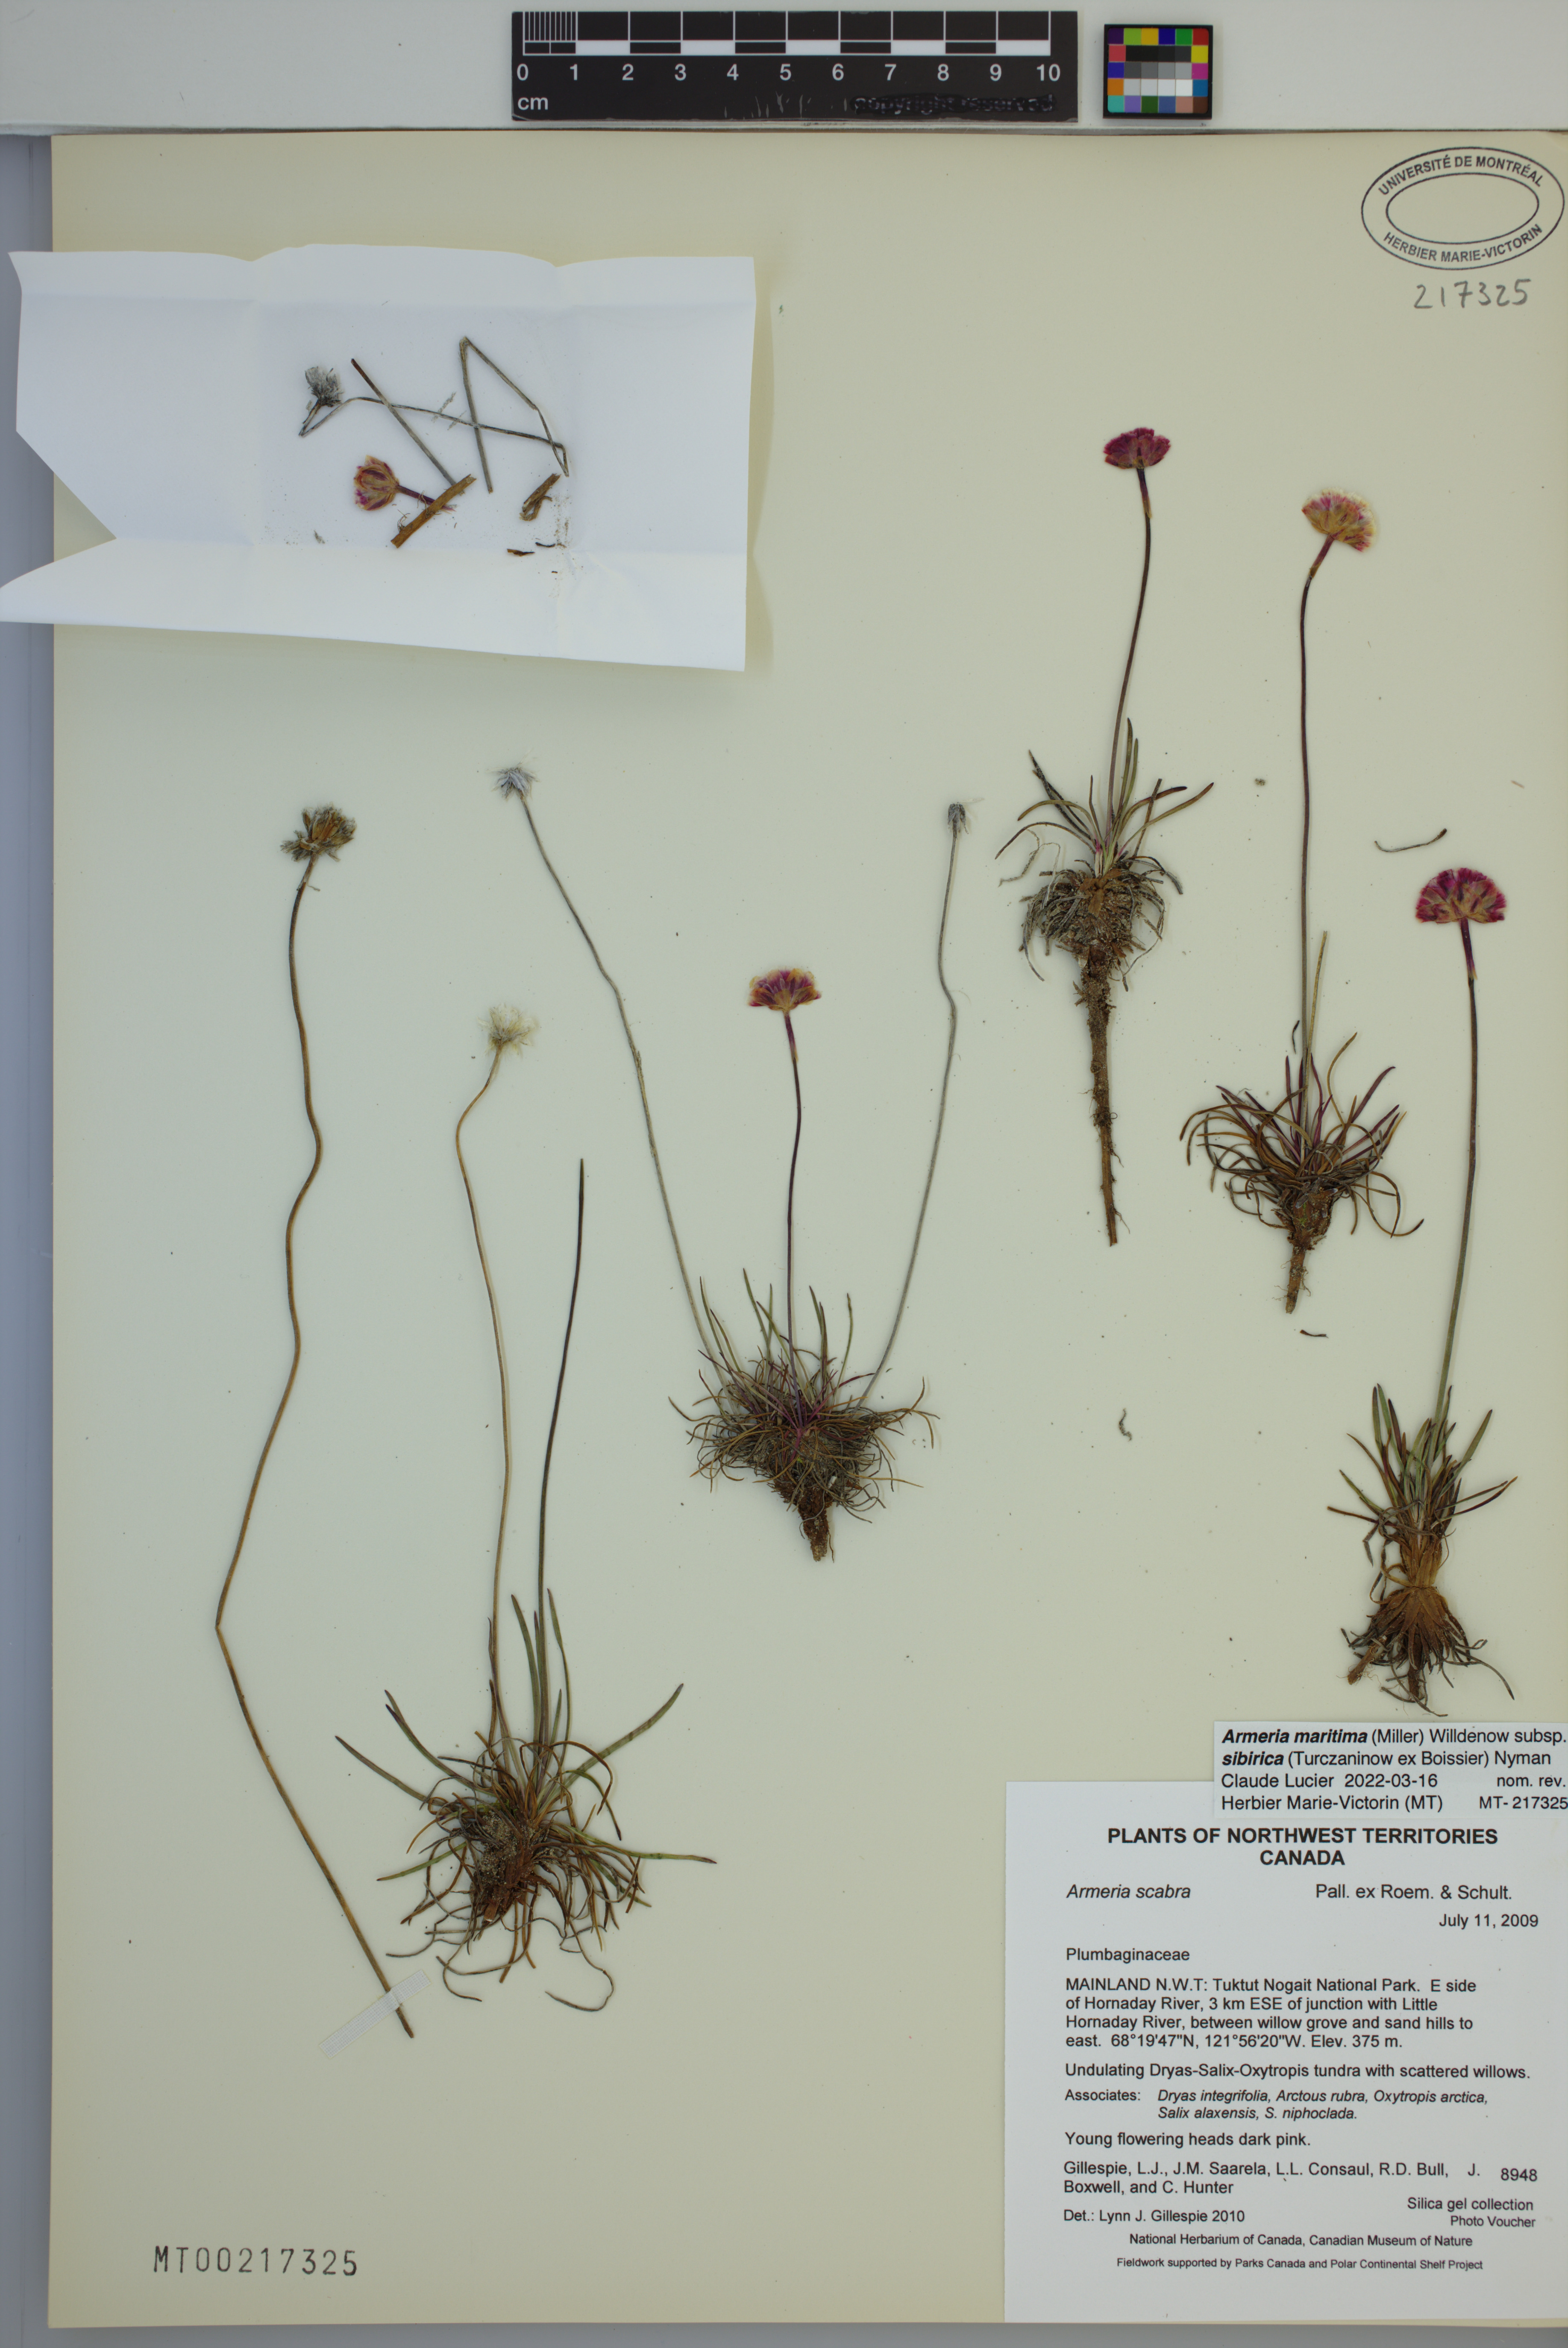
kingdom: Plantae
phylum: Tracheophyta
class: Magnoliopsida
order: Caryophyllales
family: Plumbaginaceae
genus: Armeria
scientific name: Armeria maritima
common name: Thrift
